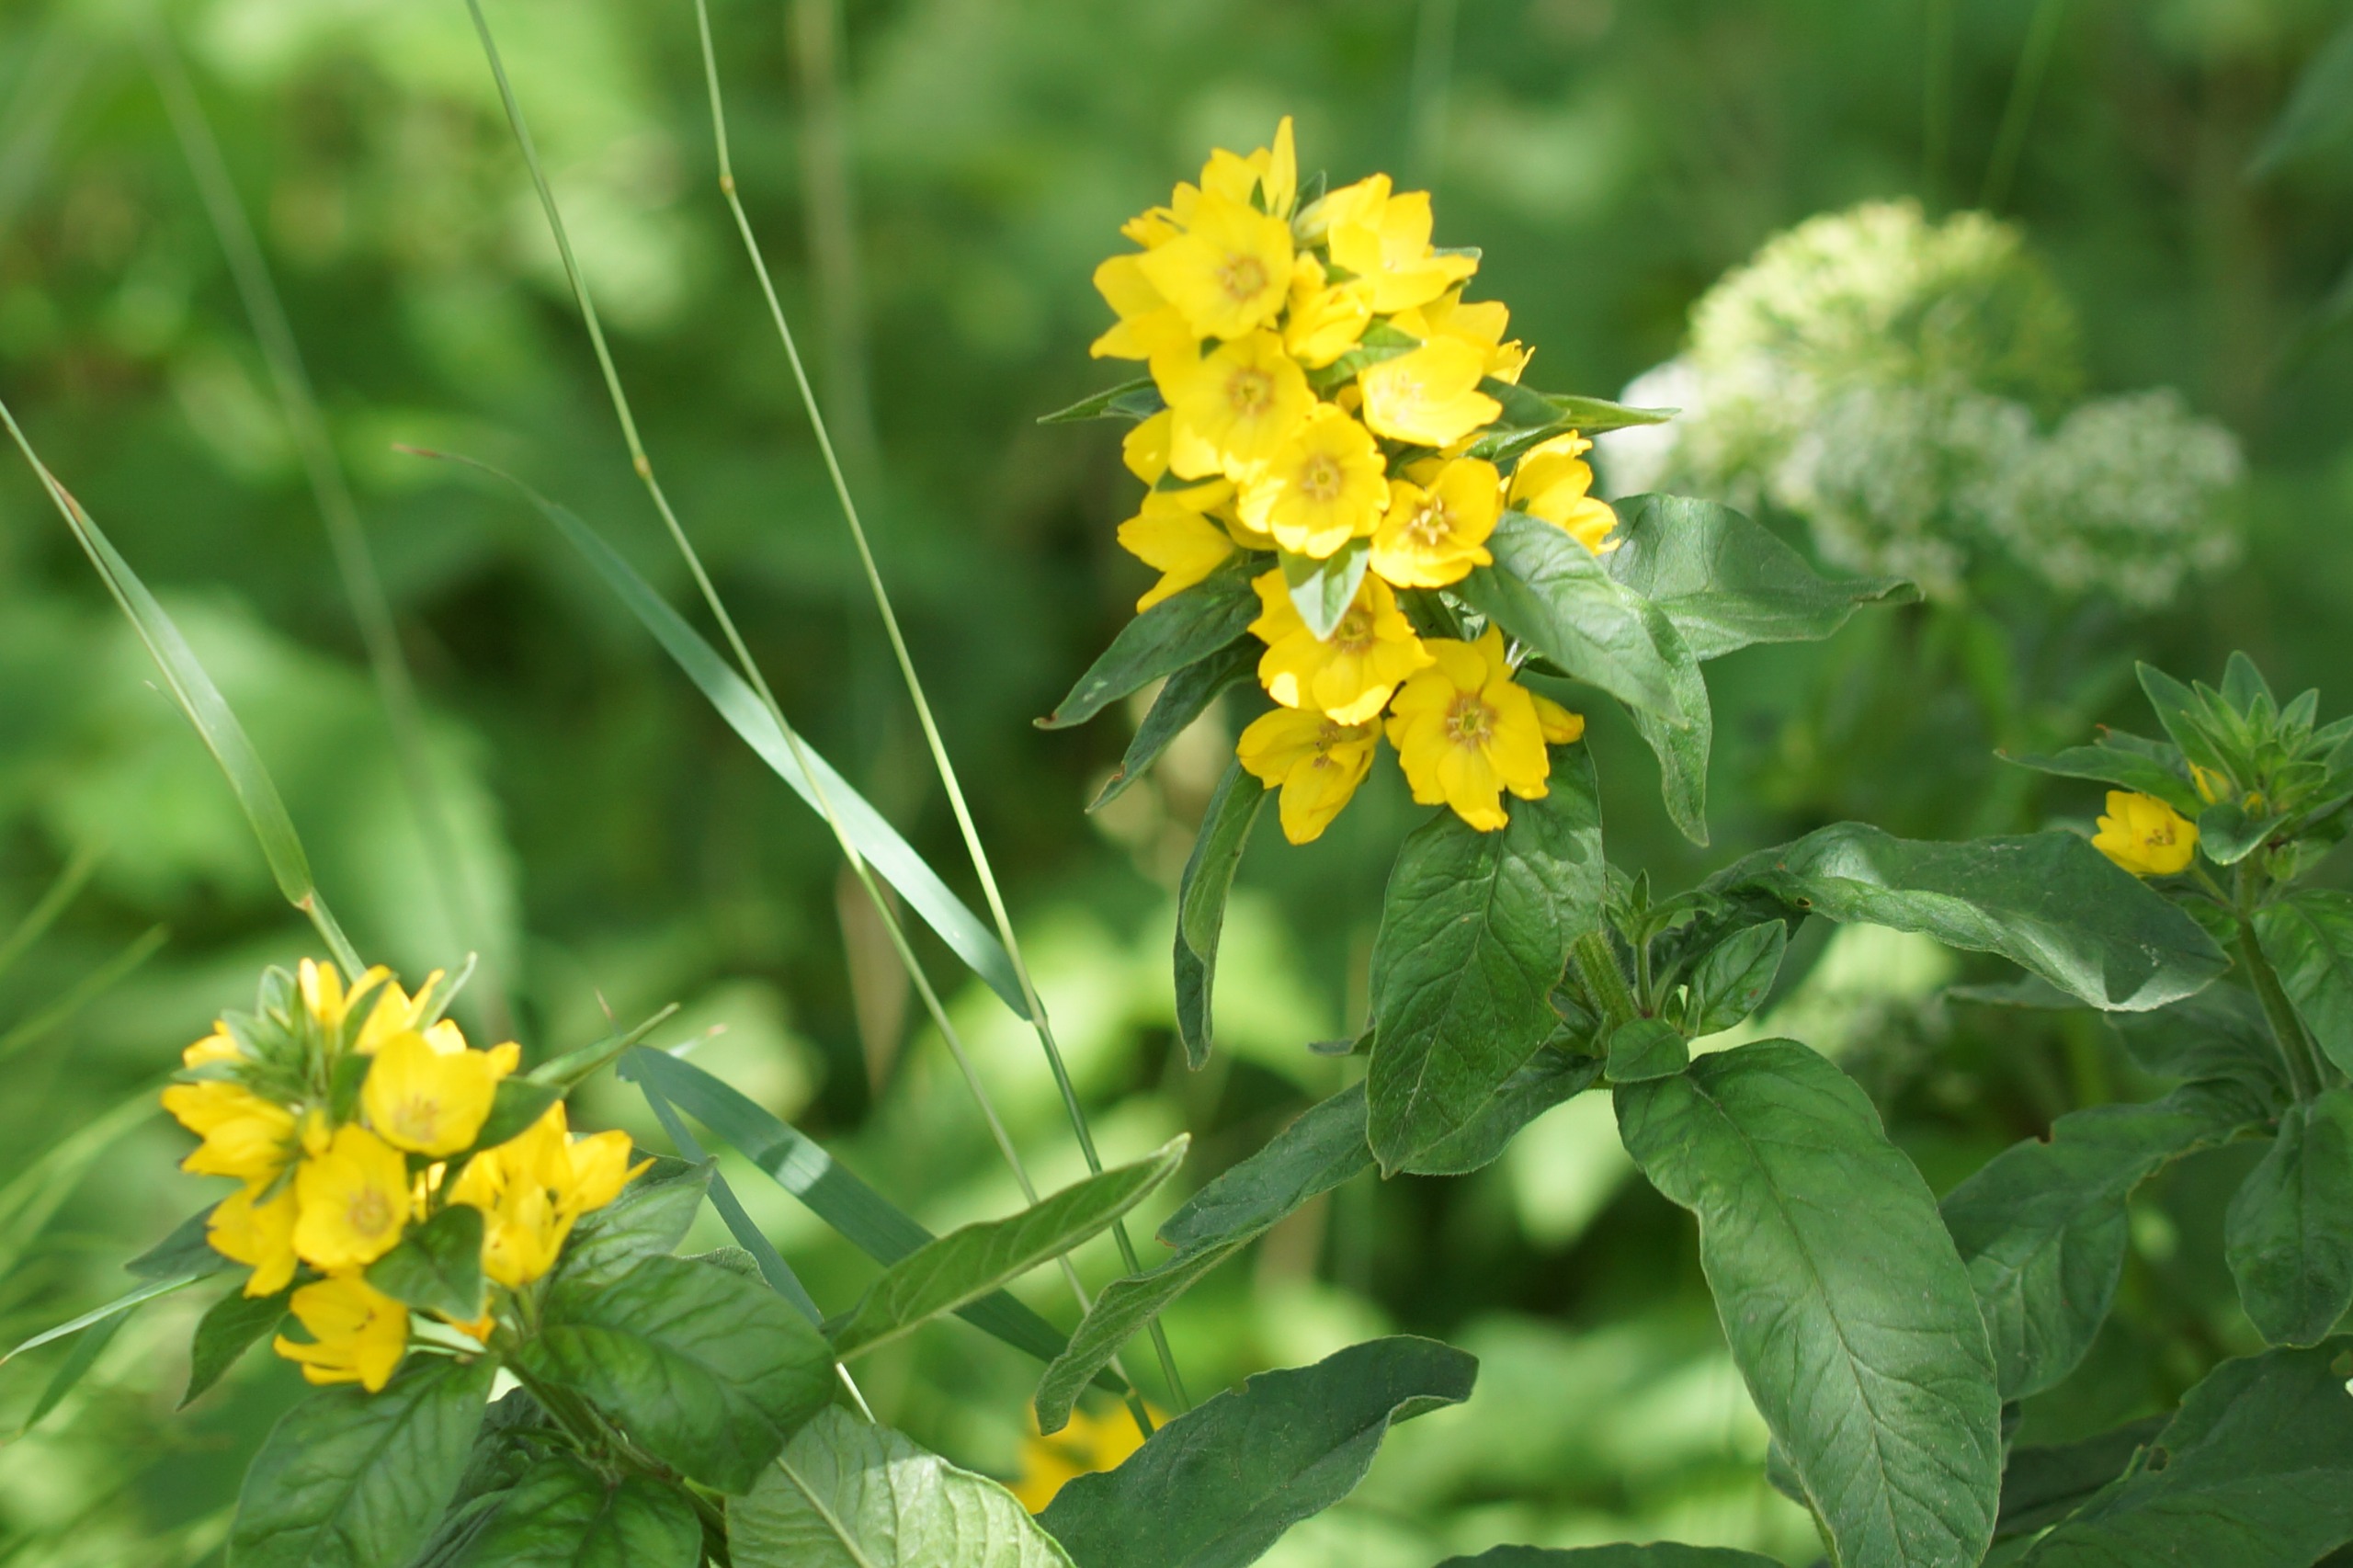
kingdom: Plantae
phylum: Tracheophyta
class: Magnoliopsida
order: Ericales
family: Primulaceae
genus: Lysimachia
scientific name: Lysimachia punctata
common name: Prikbladet fredløs
